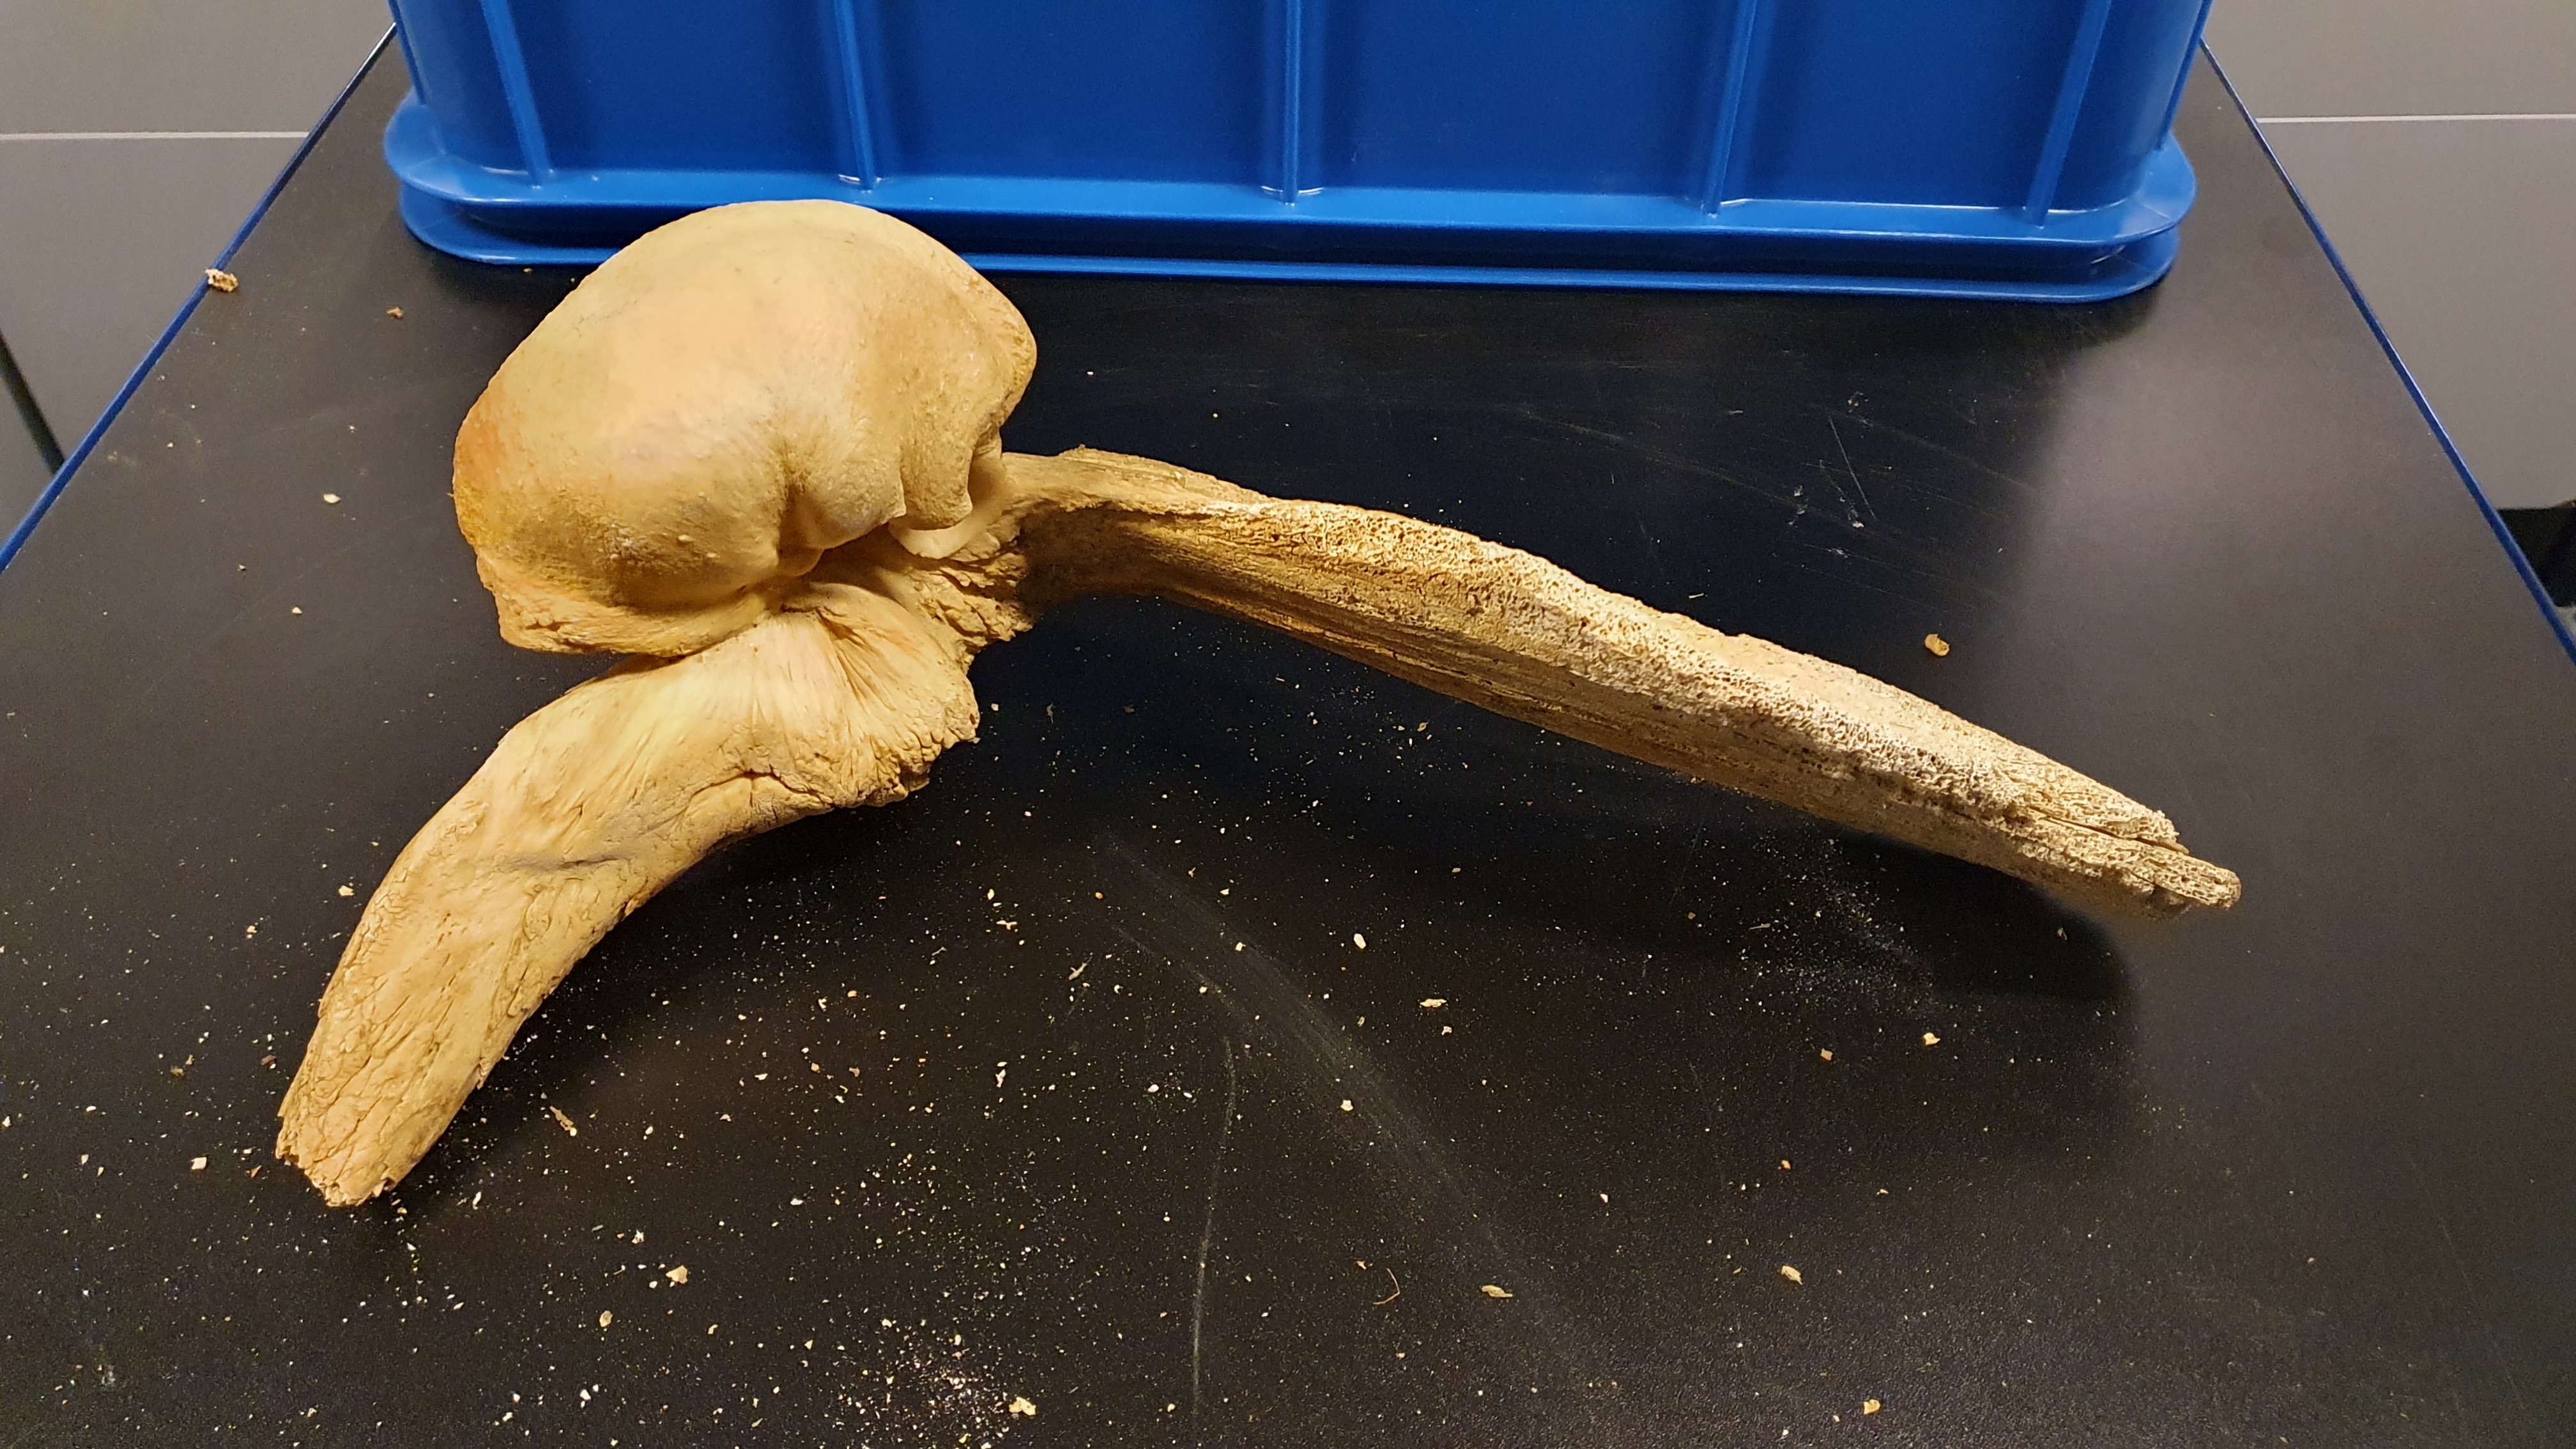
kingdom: Animalia
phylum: Chordata
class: Mammalia
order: Cetacea
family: Balaenopteridae
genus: Balaenoptera
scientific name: Balaenoptera physalus
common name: Fin whale
